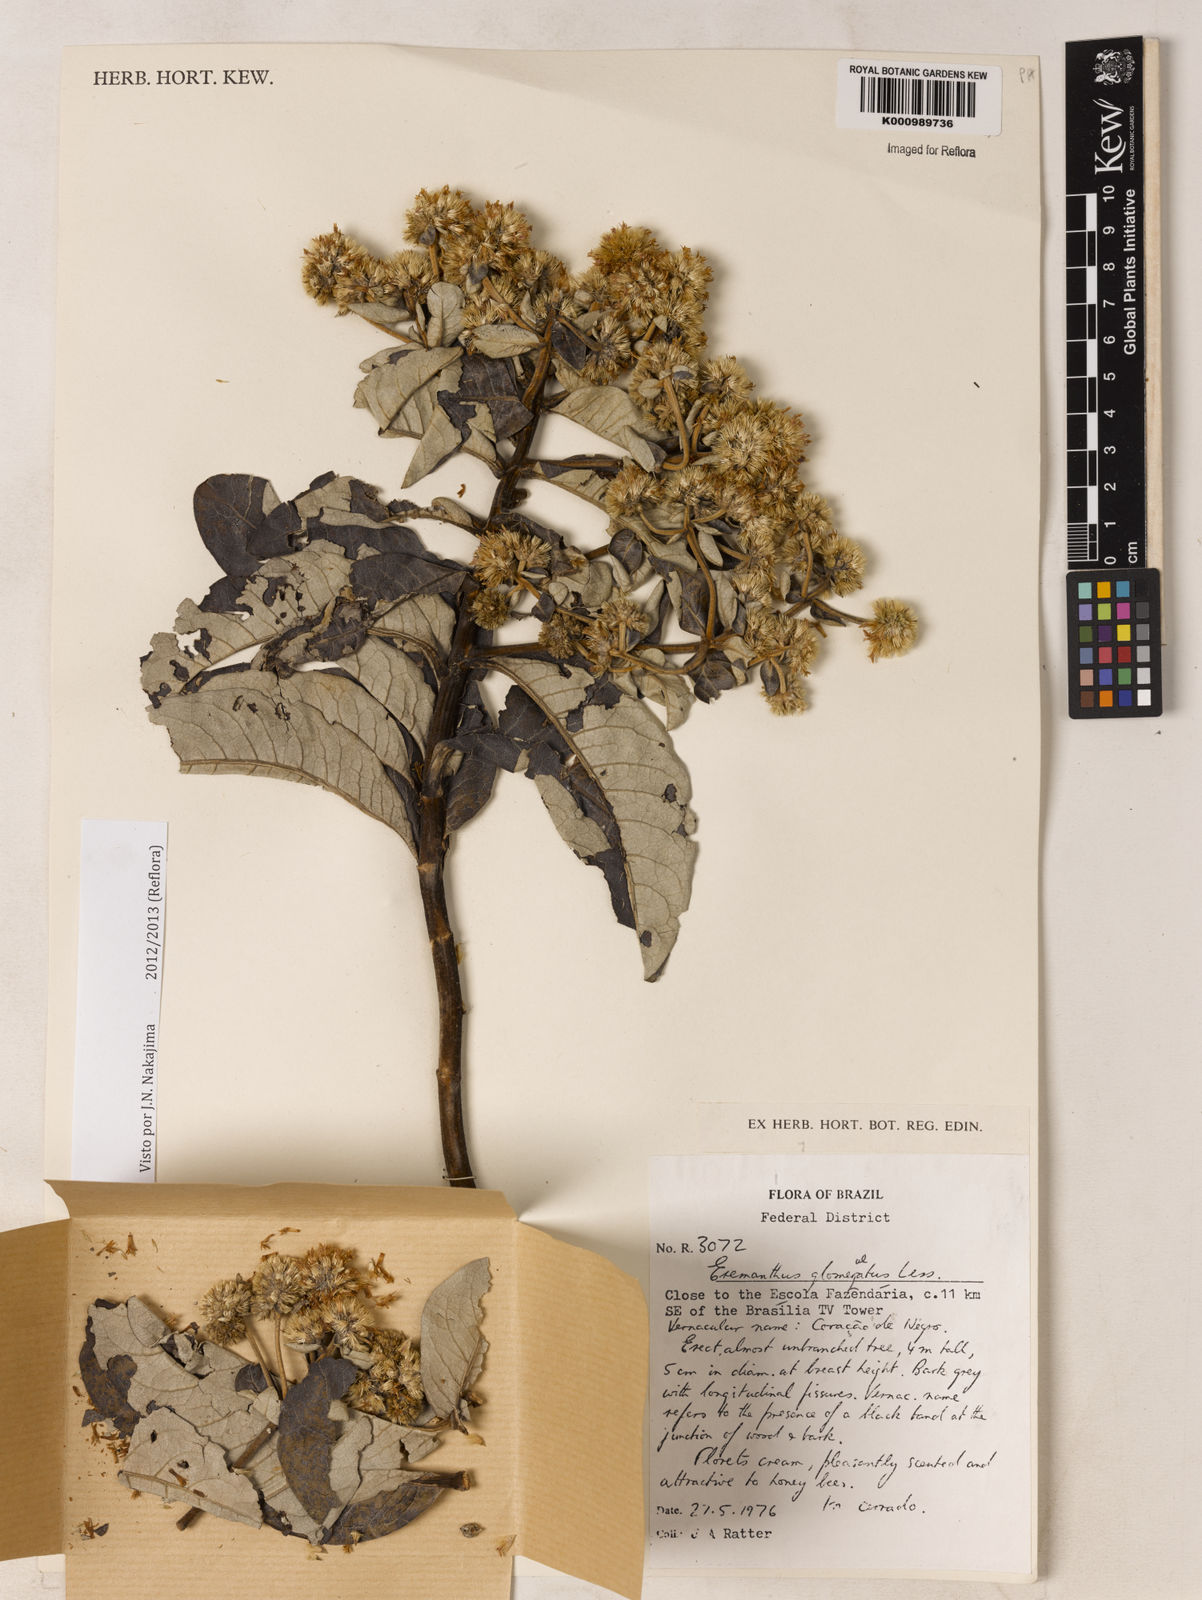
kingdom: Plantae
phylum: Tracheophyta
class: Magnoliopsida
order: Asterales
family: Asteraceae
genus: Eremanthus
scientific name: Eremanthus glomerulatus
